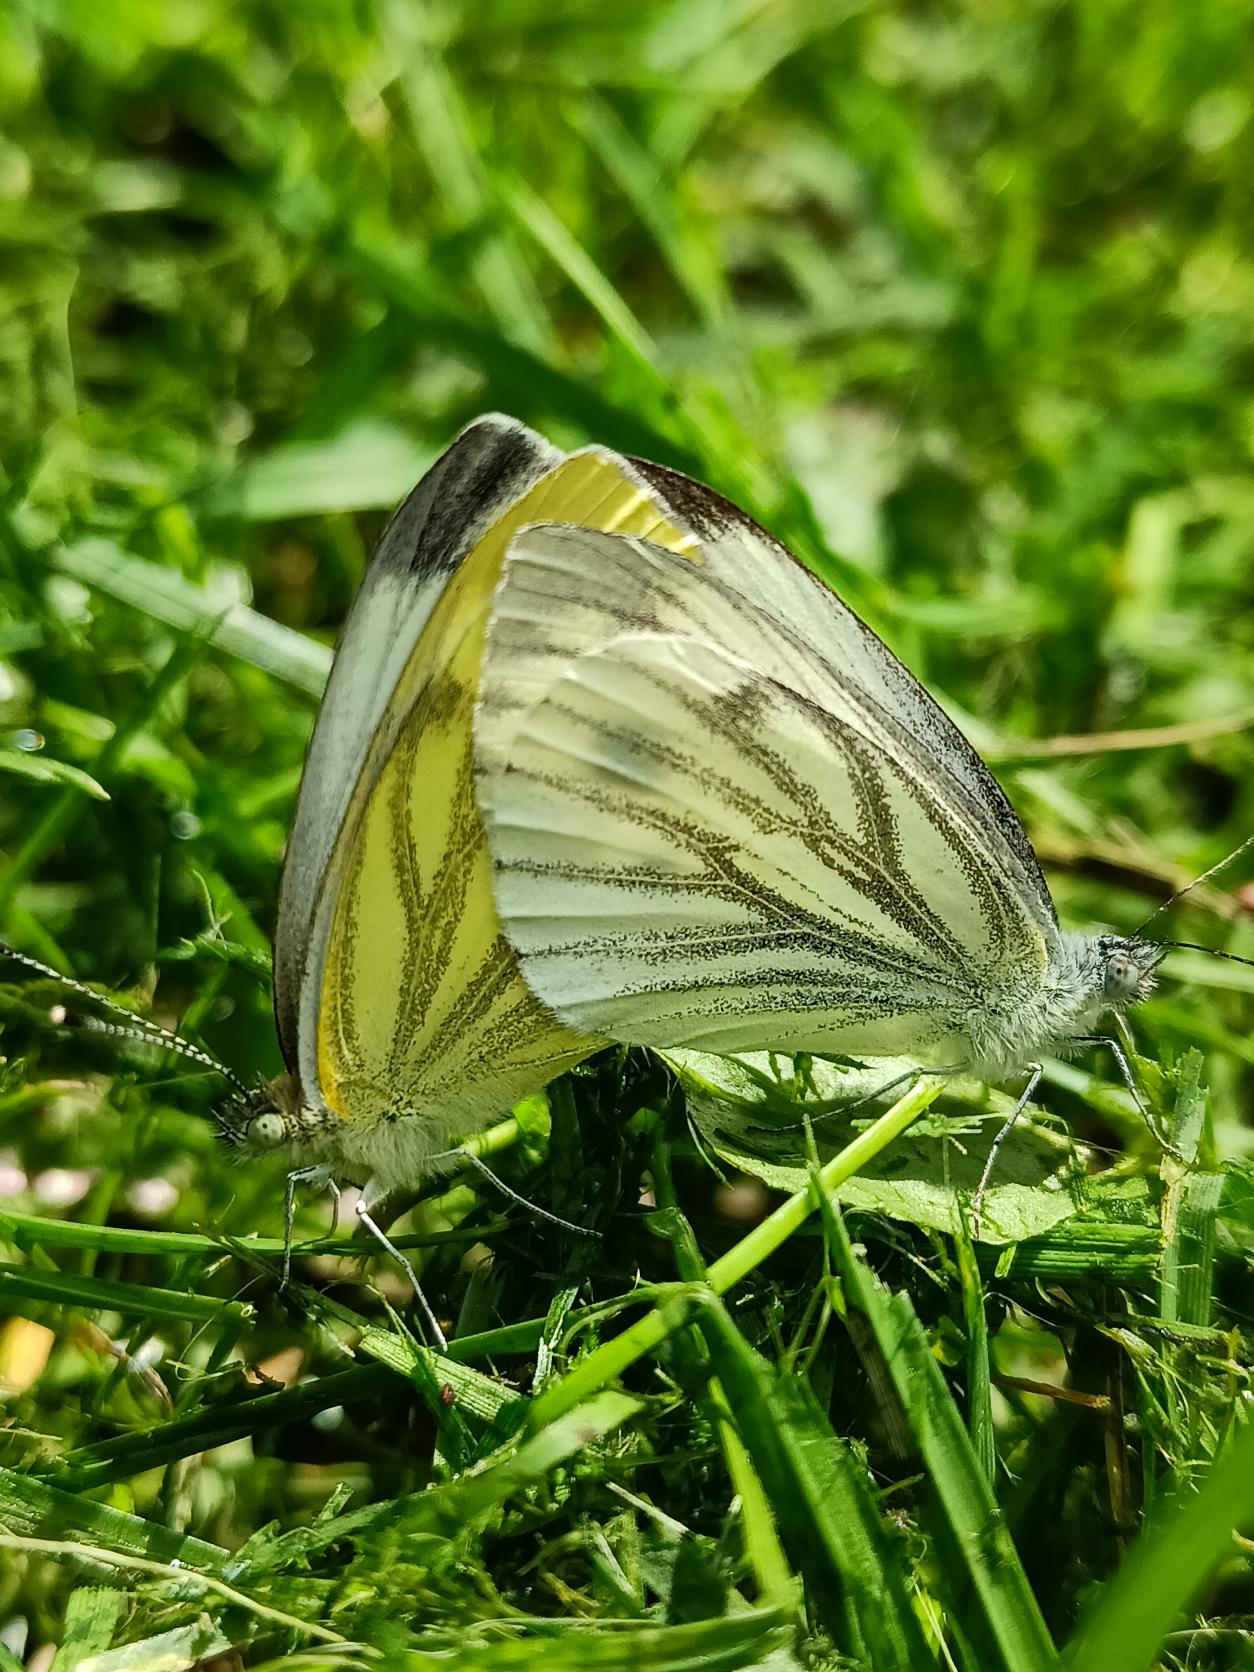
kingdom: Animalia
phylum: Arthropoda
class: Insecta
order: Lepidoptera
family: Pieridae
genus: Pieris
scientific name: Pieris napi
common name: Grønåret kålsommerfugl
